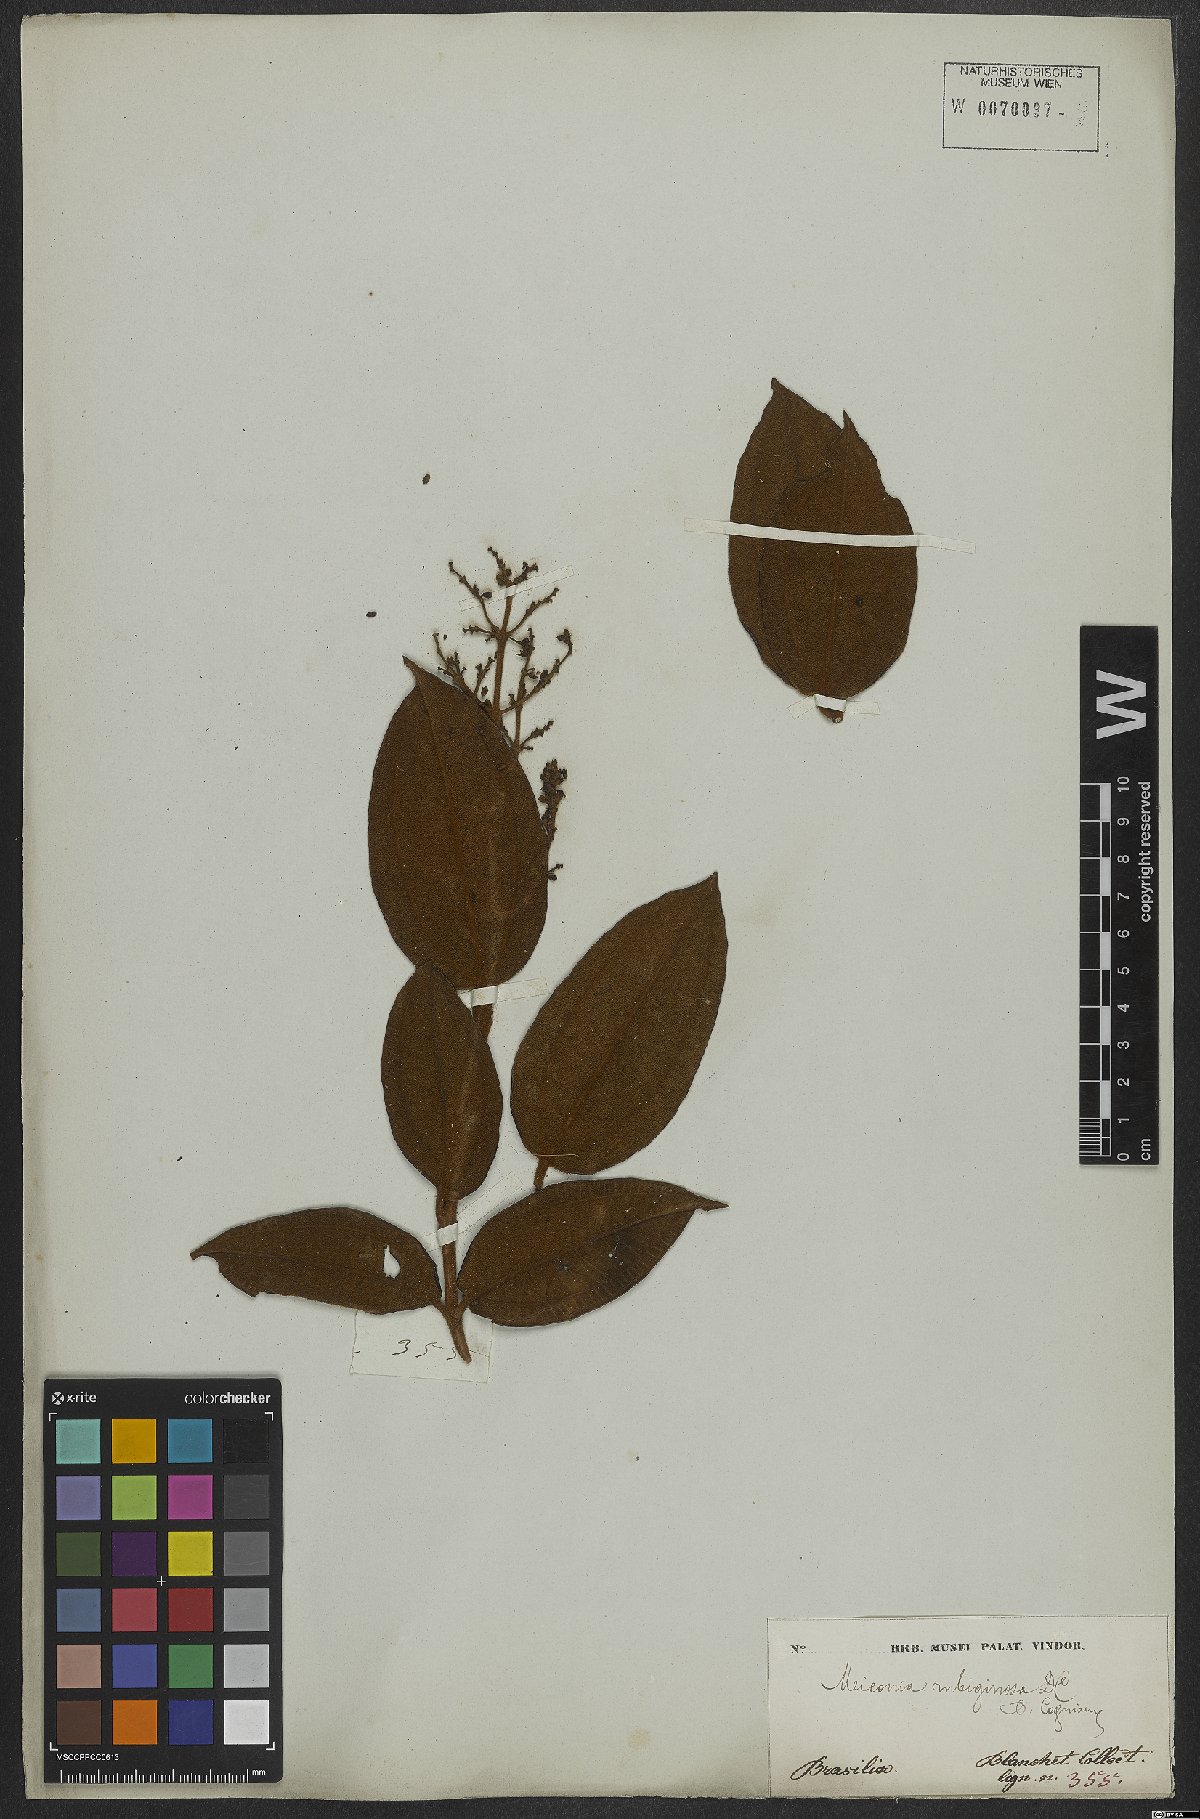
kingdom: Plantae
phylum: Tracheophyta
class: Magnoliopsida
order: Myrtales
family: Melastomataceae
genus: Miconia
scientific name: Miconia rubiginosa
